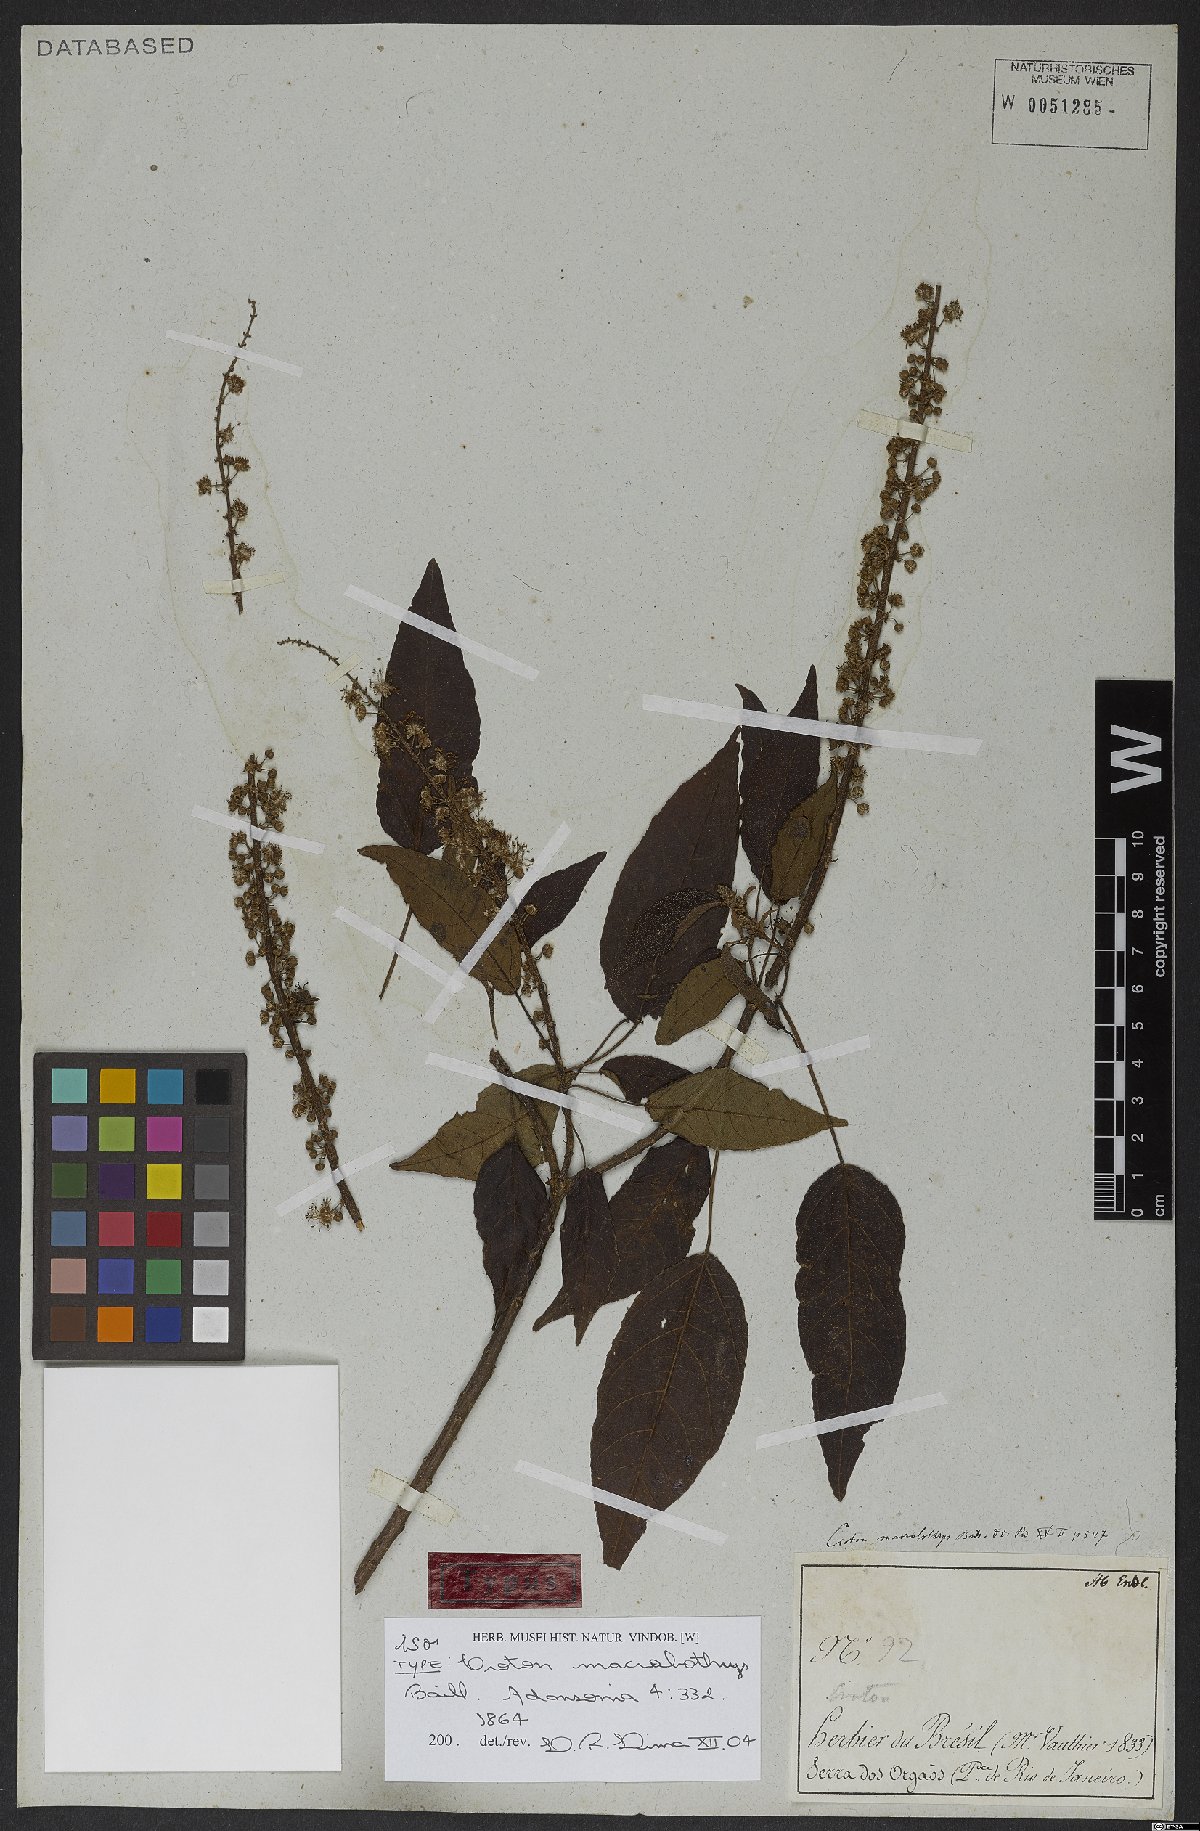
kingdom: Plantae
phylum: Tracheophyta
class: Magnoliopsida
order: Malpighiales
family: Euphorbiaceae
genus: Croton
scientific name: Croton macrobothrys
